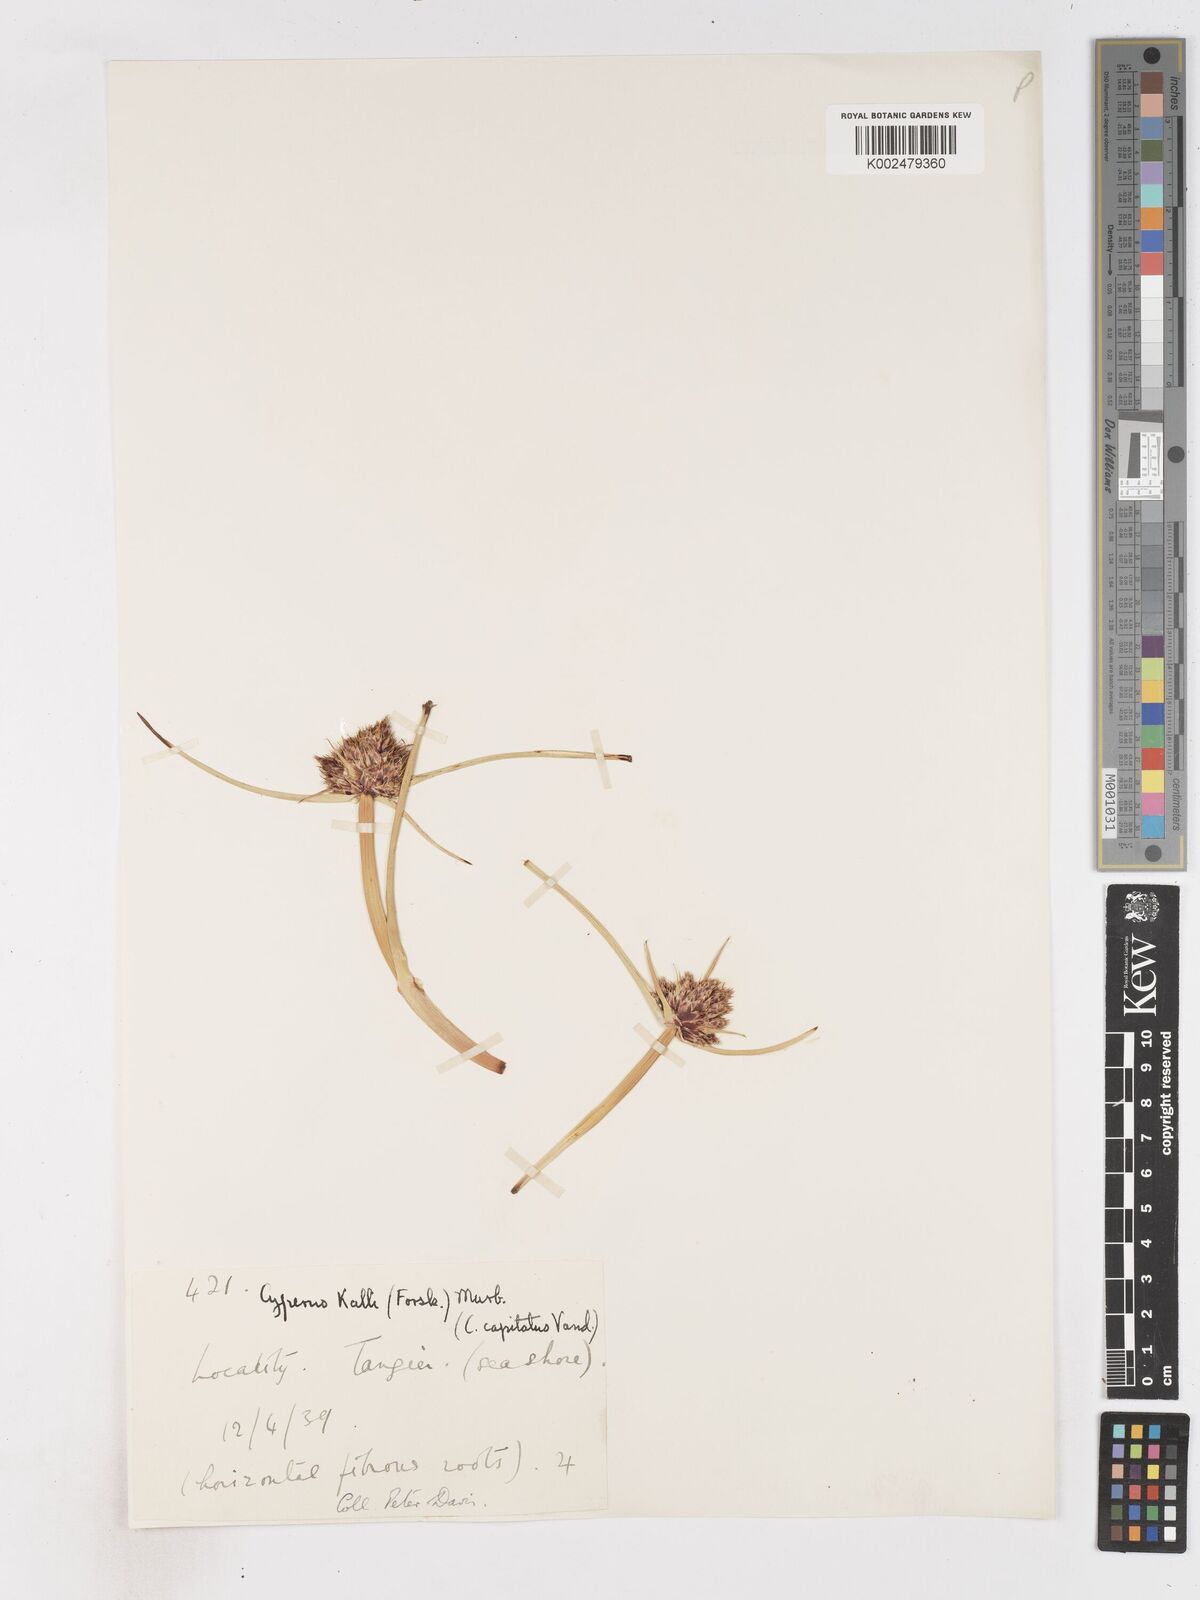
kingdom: Plantae
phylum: Tracheophyta
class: Liliopsida
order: Poales
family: Cyperaceae
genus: Cyperus
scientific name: Cyperus capitatus
